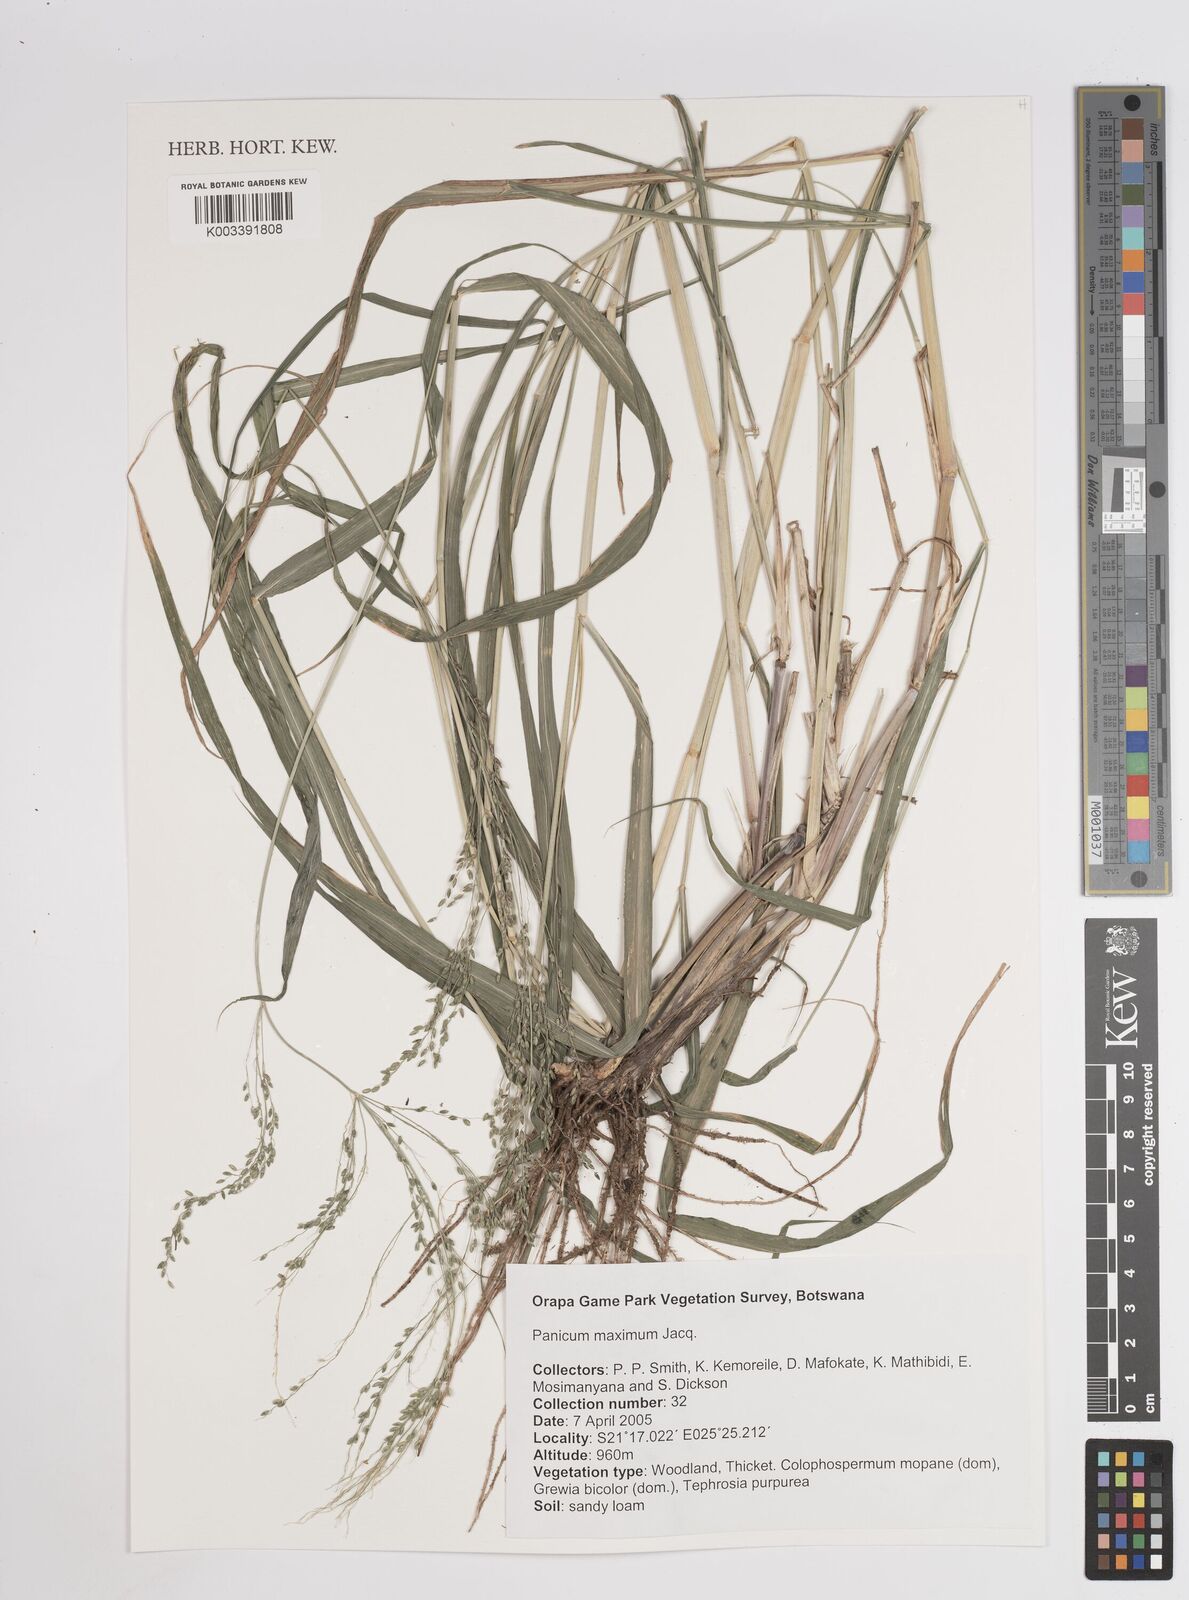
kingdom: Plantae
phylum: Tracheophyta
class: Liliopsida
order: Poales
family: Poaceae
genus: Megathyrsus
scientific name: Megathyrsus maximus
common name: Guineagrass
